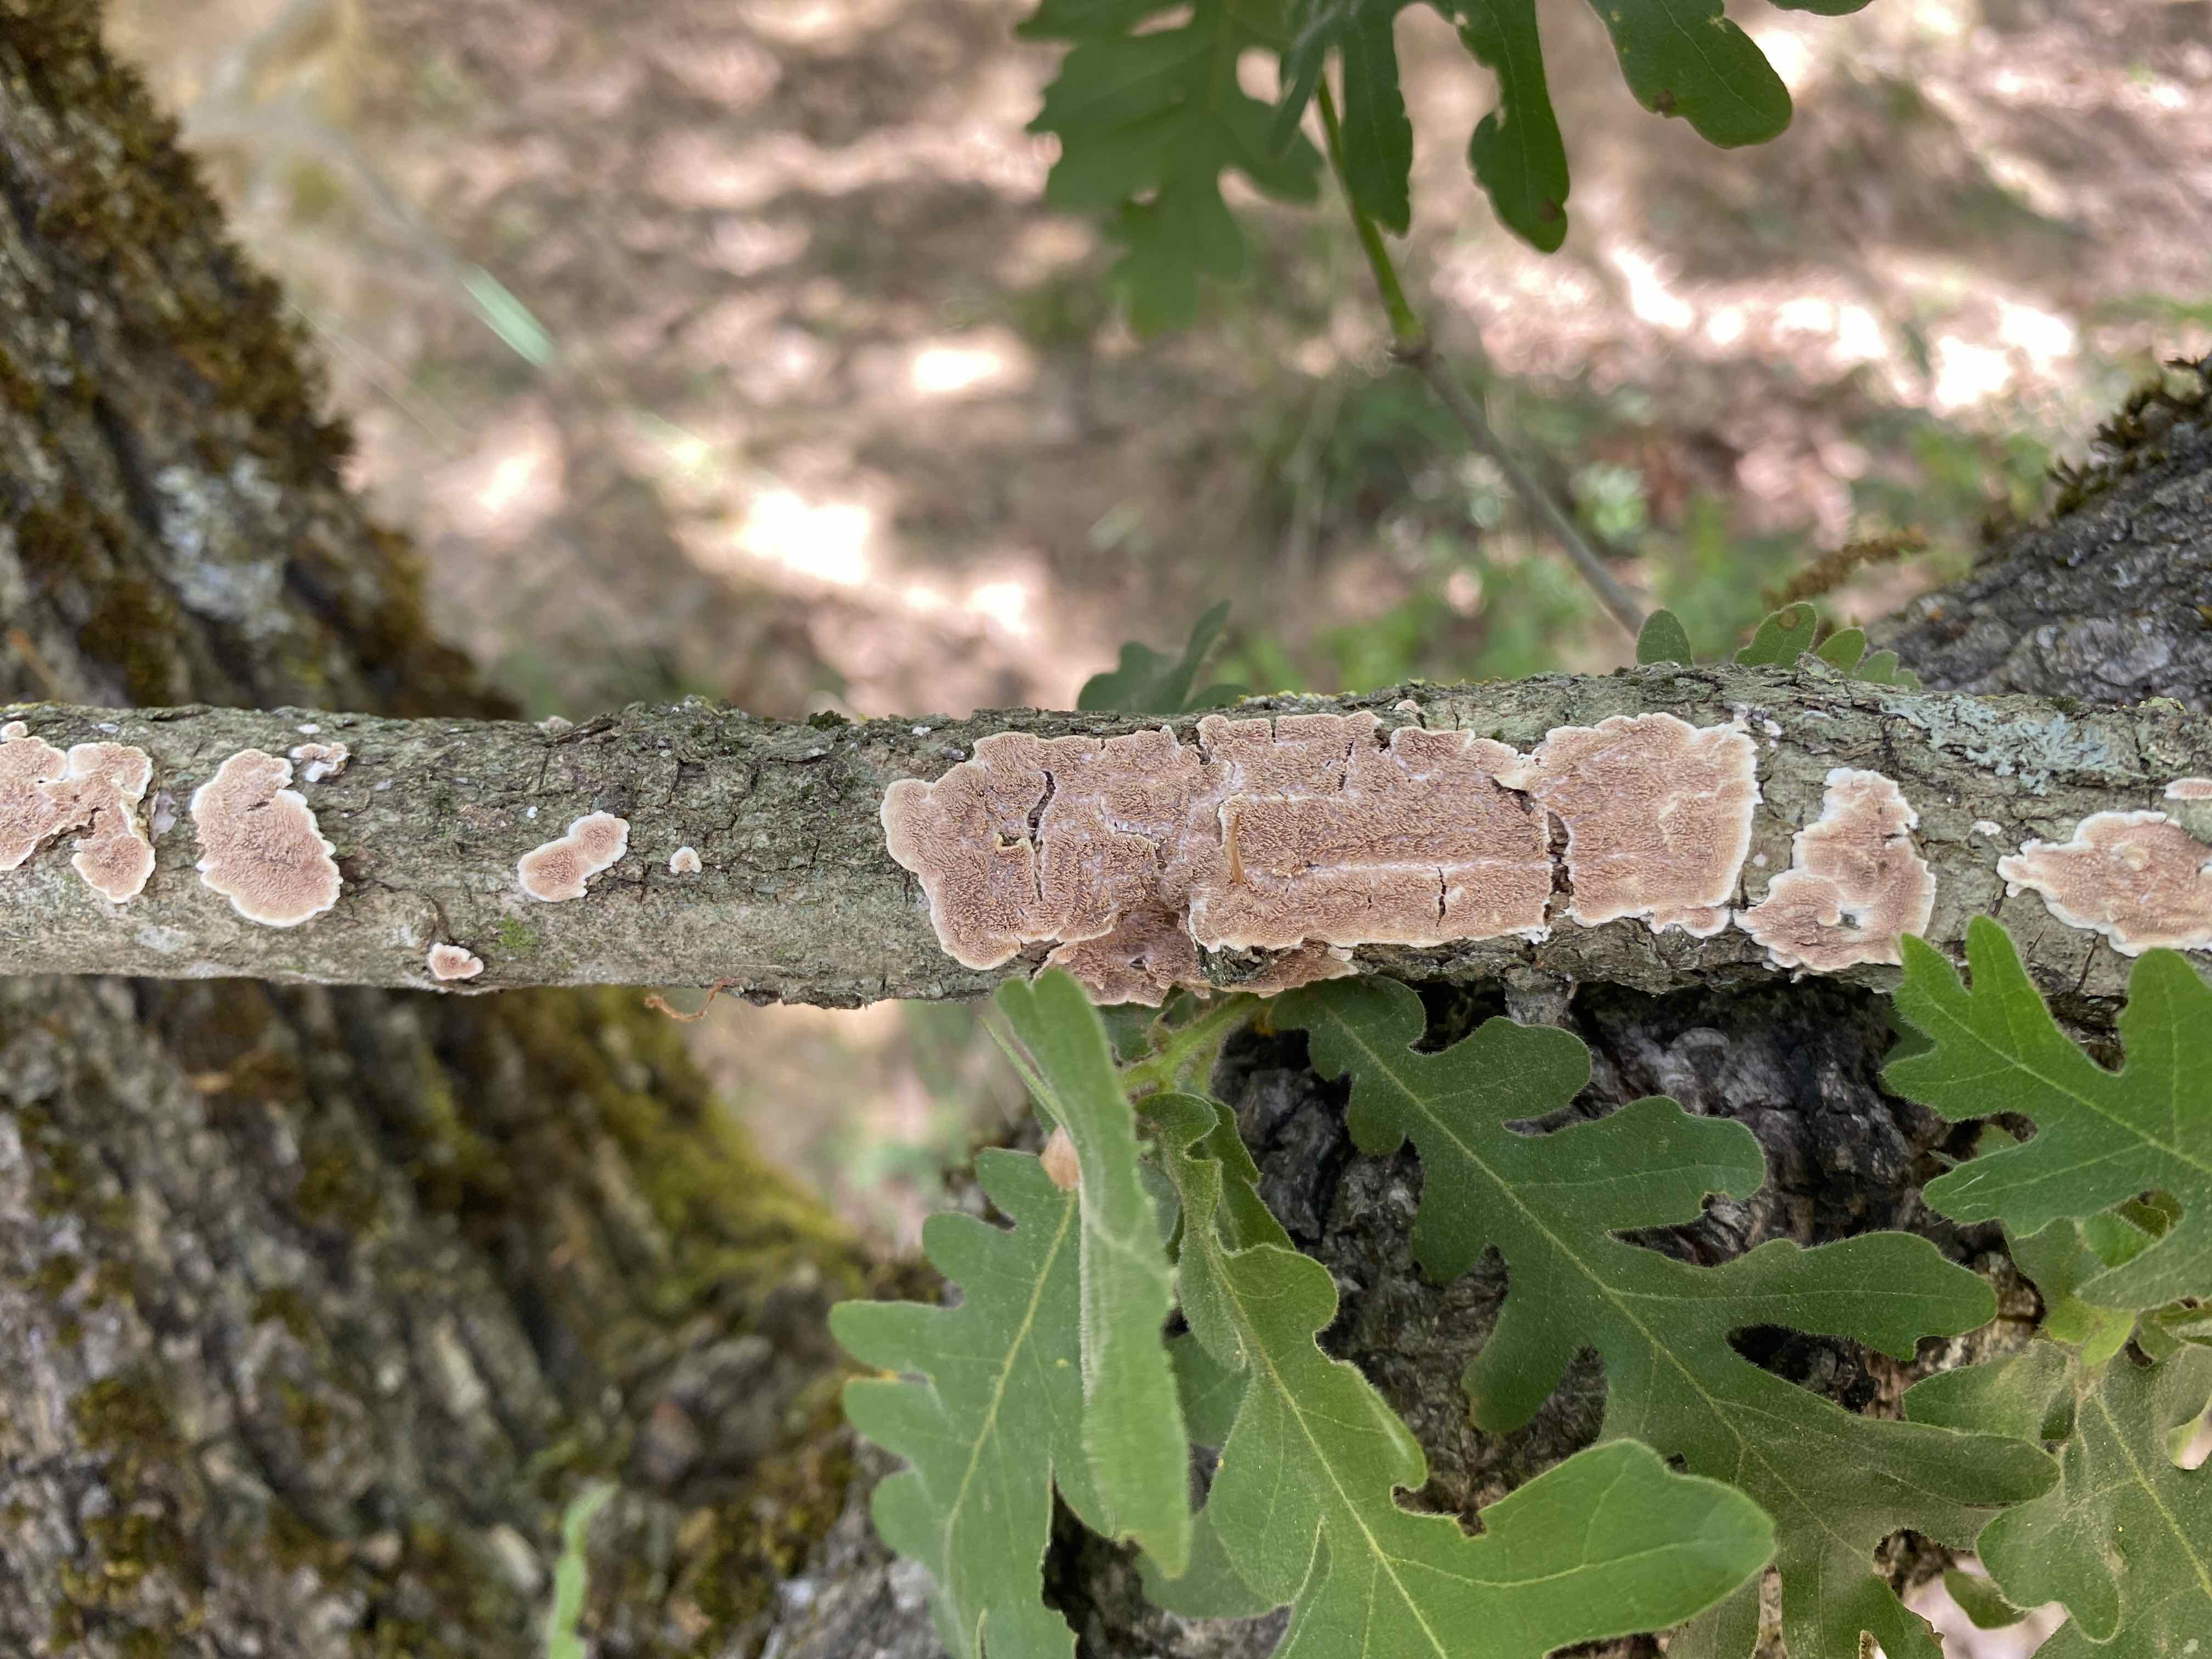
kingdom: Fungi
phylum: Basidiomycota
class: Agaricomycetes
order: Polyporales
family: Steccherinaceae
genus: Steccherinum
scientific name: Steccherinum
